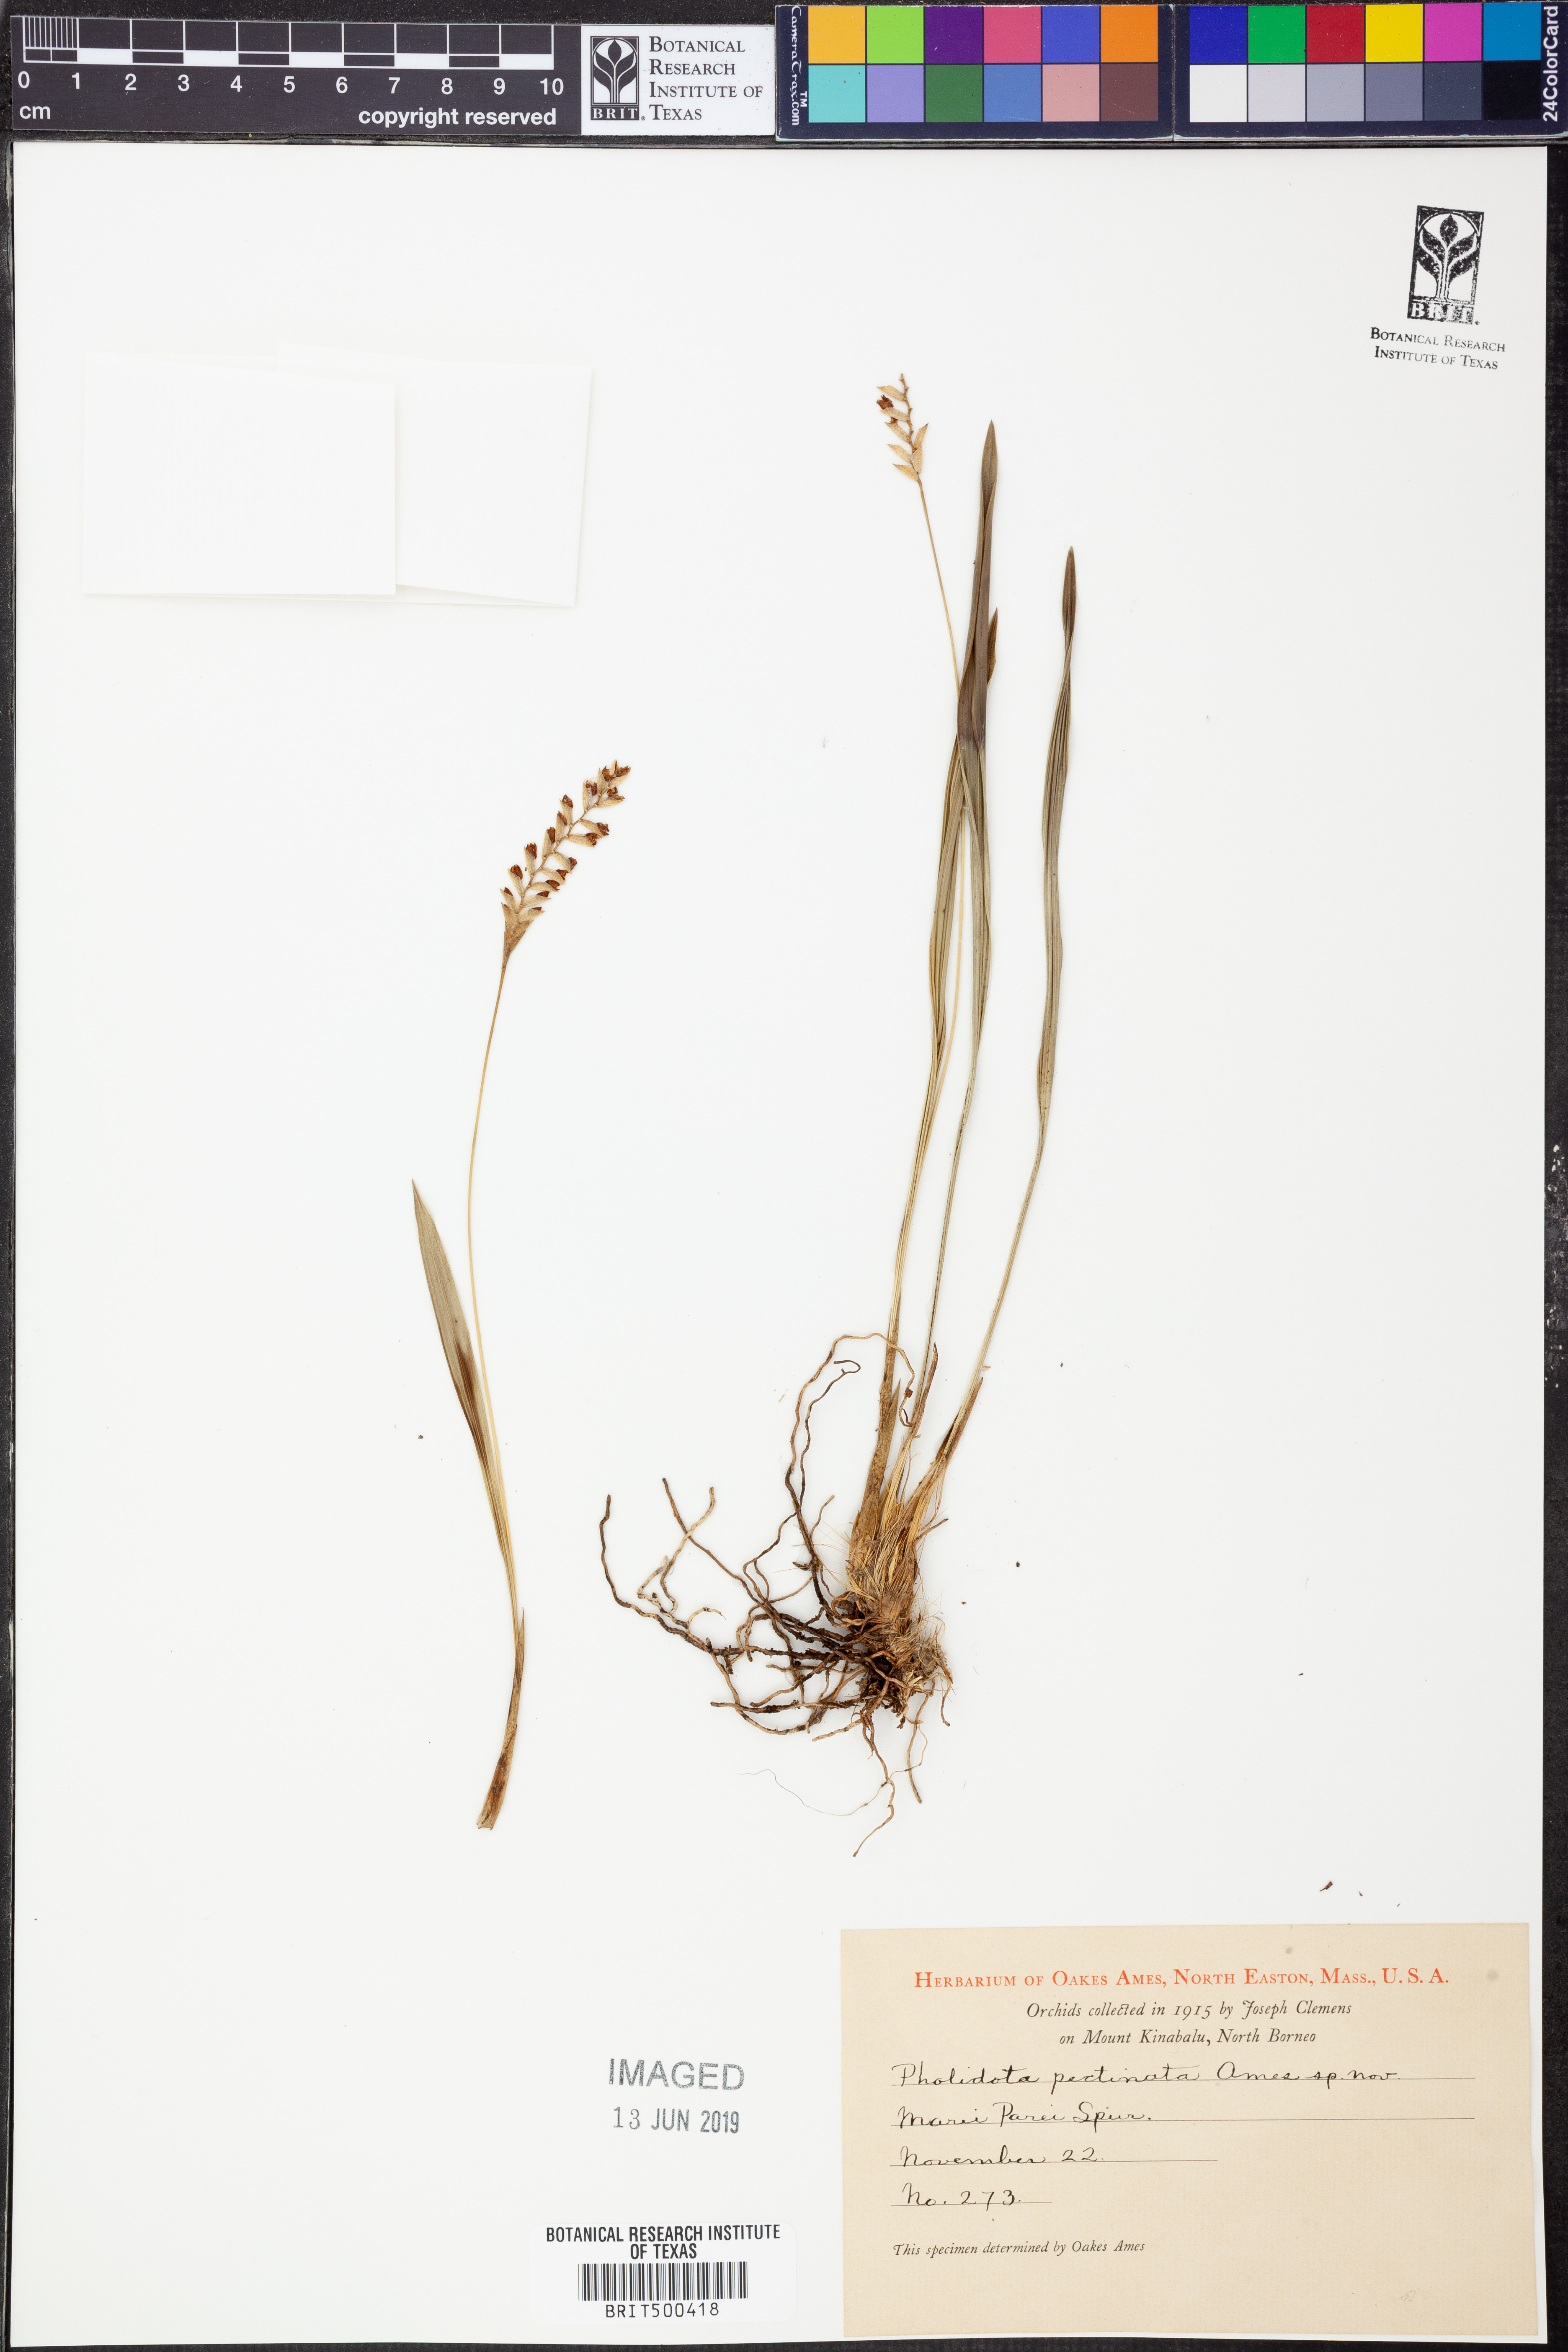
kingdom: Plantae
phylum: Tracheophyta
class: Liliopsida
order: Asparagales
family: Orchidaceae
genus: Coelogyne
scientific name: Coelogyne pectinata
